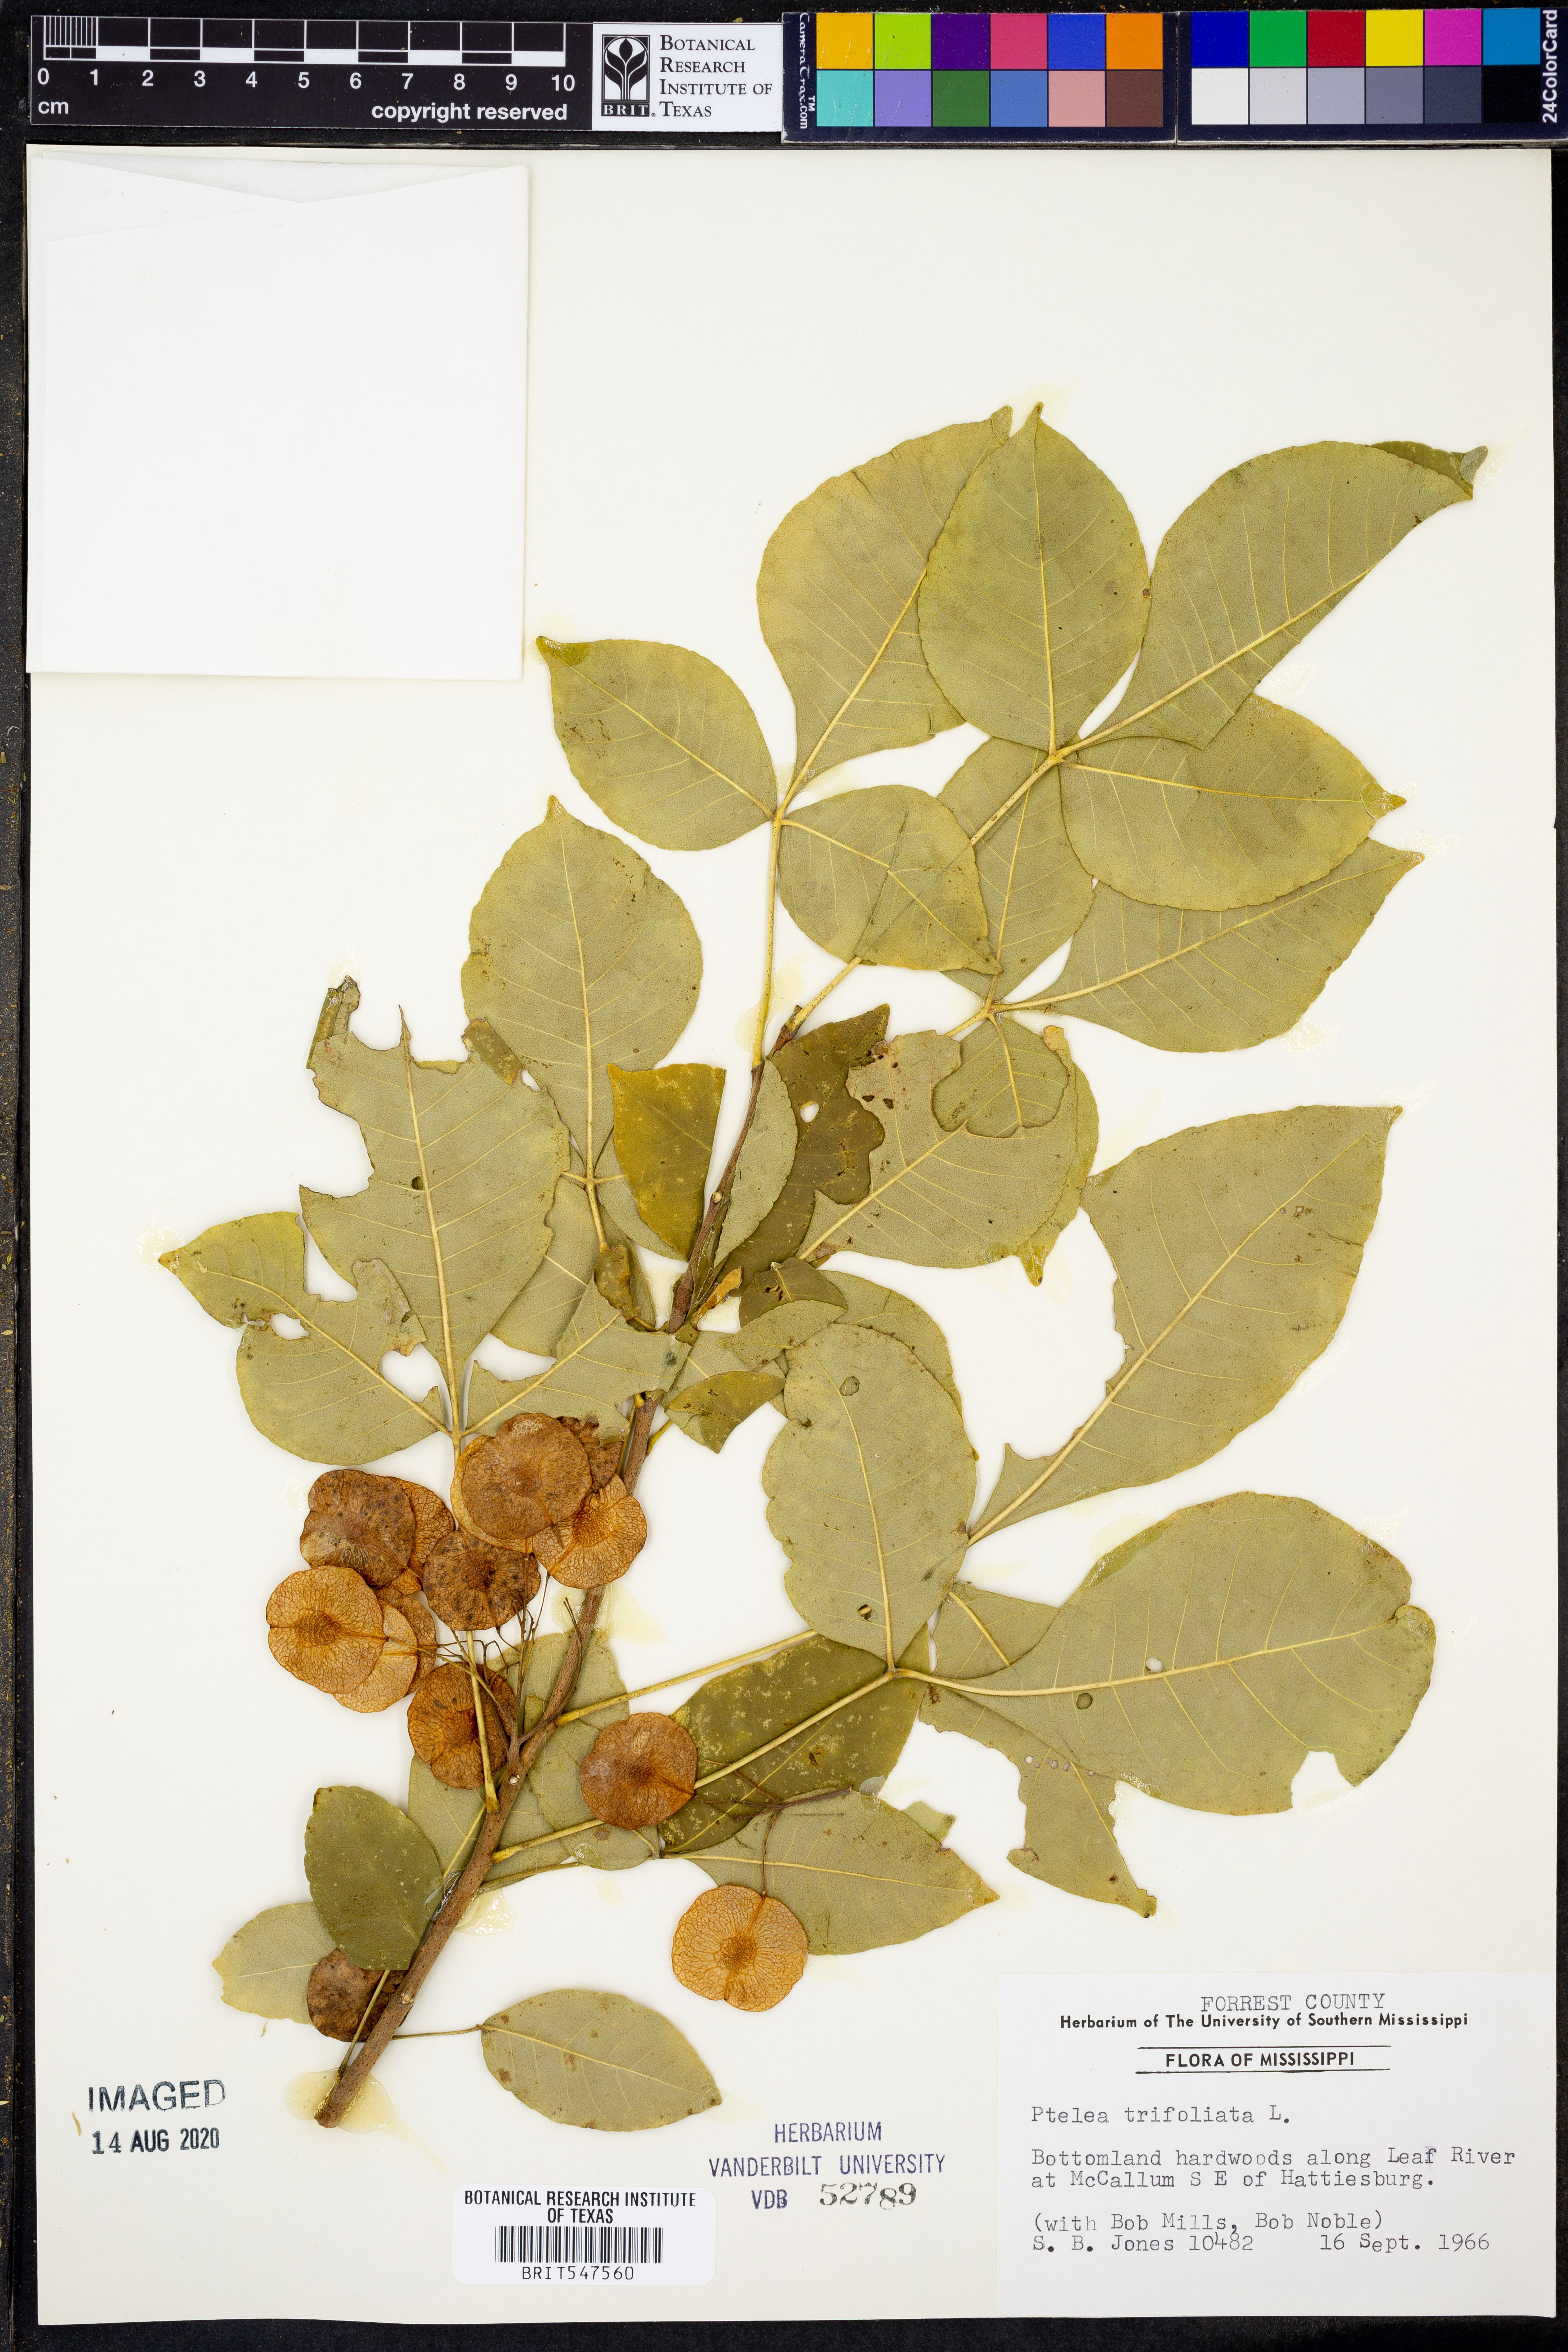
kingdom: Plantae
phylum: Tracheophyta
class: Magnoliopsida
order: Sapindales
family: Rutaceae
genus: Ptelea
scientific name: Ptelea trifoliata
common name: Common hop-tree
